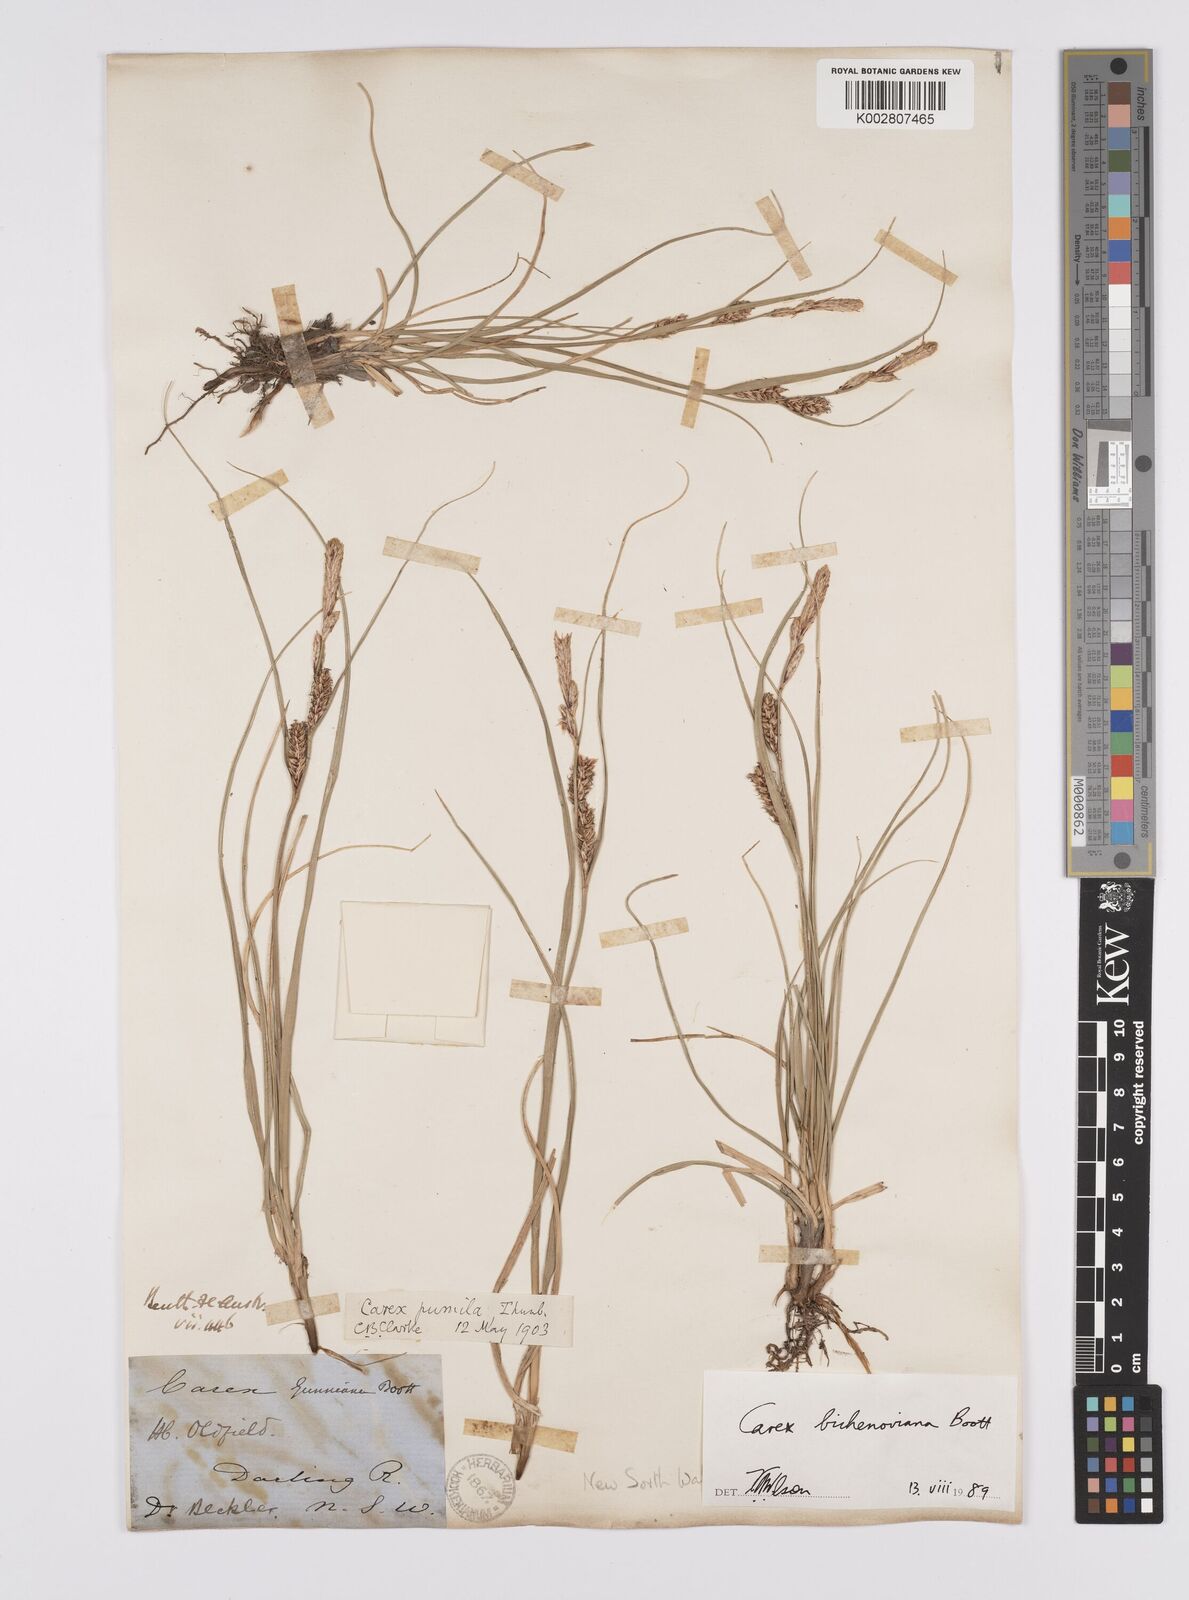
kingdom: Plantae
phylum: Tracheophyta
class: Liliopsida
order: Poales
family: Cyperaceae
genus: Carex
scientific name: Carex bichenoviana
